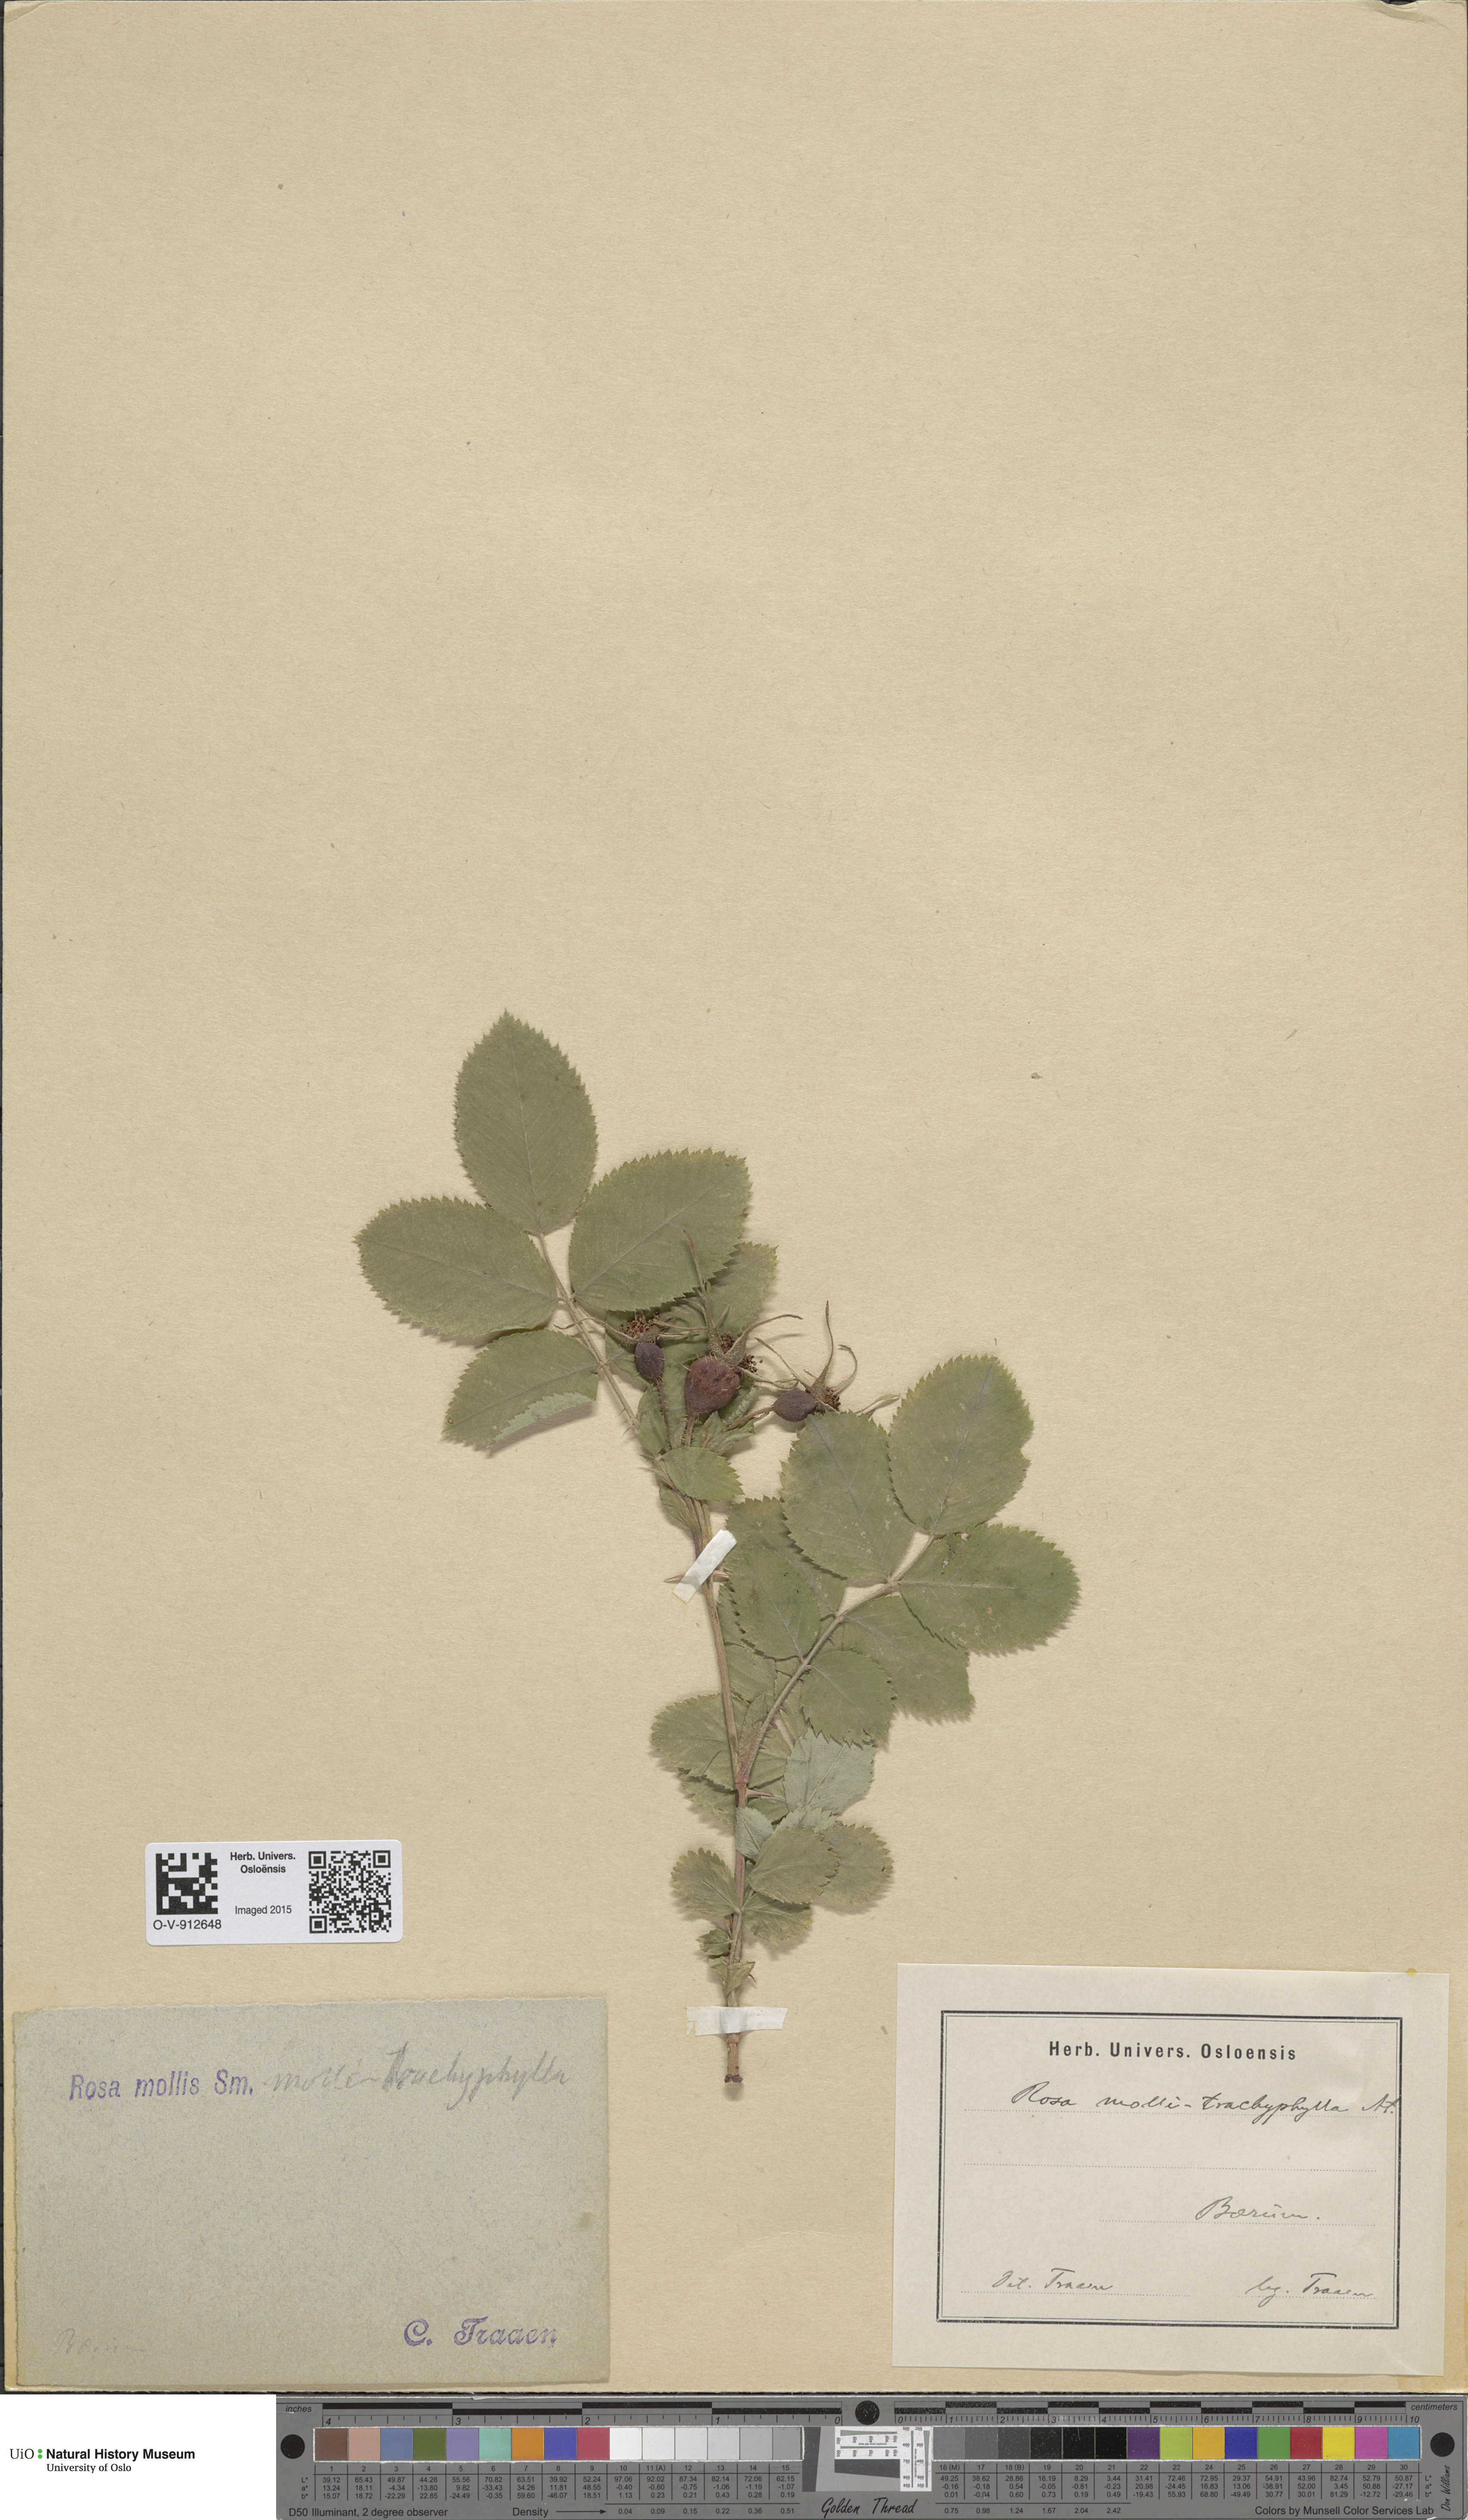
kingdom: Plantae
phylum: Tracheophyta
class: Magnoliopsida
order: Rosales
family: Rosaceae
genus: Rosa
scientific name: Rosa mollis
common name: Rose
